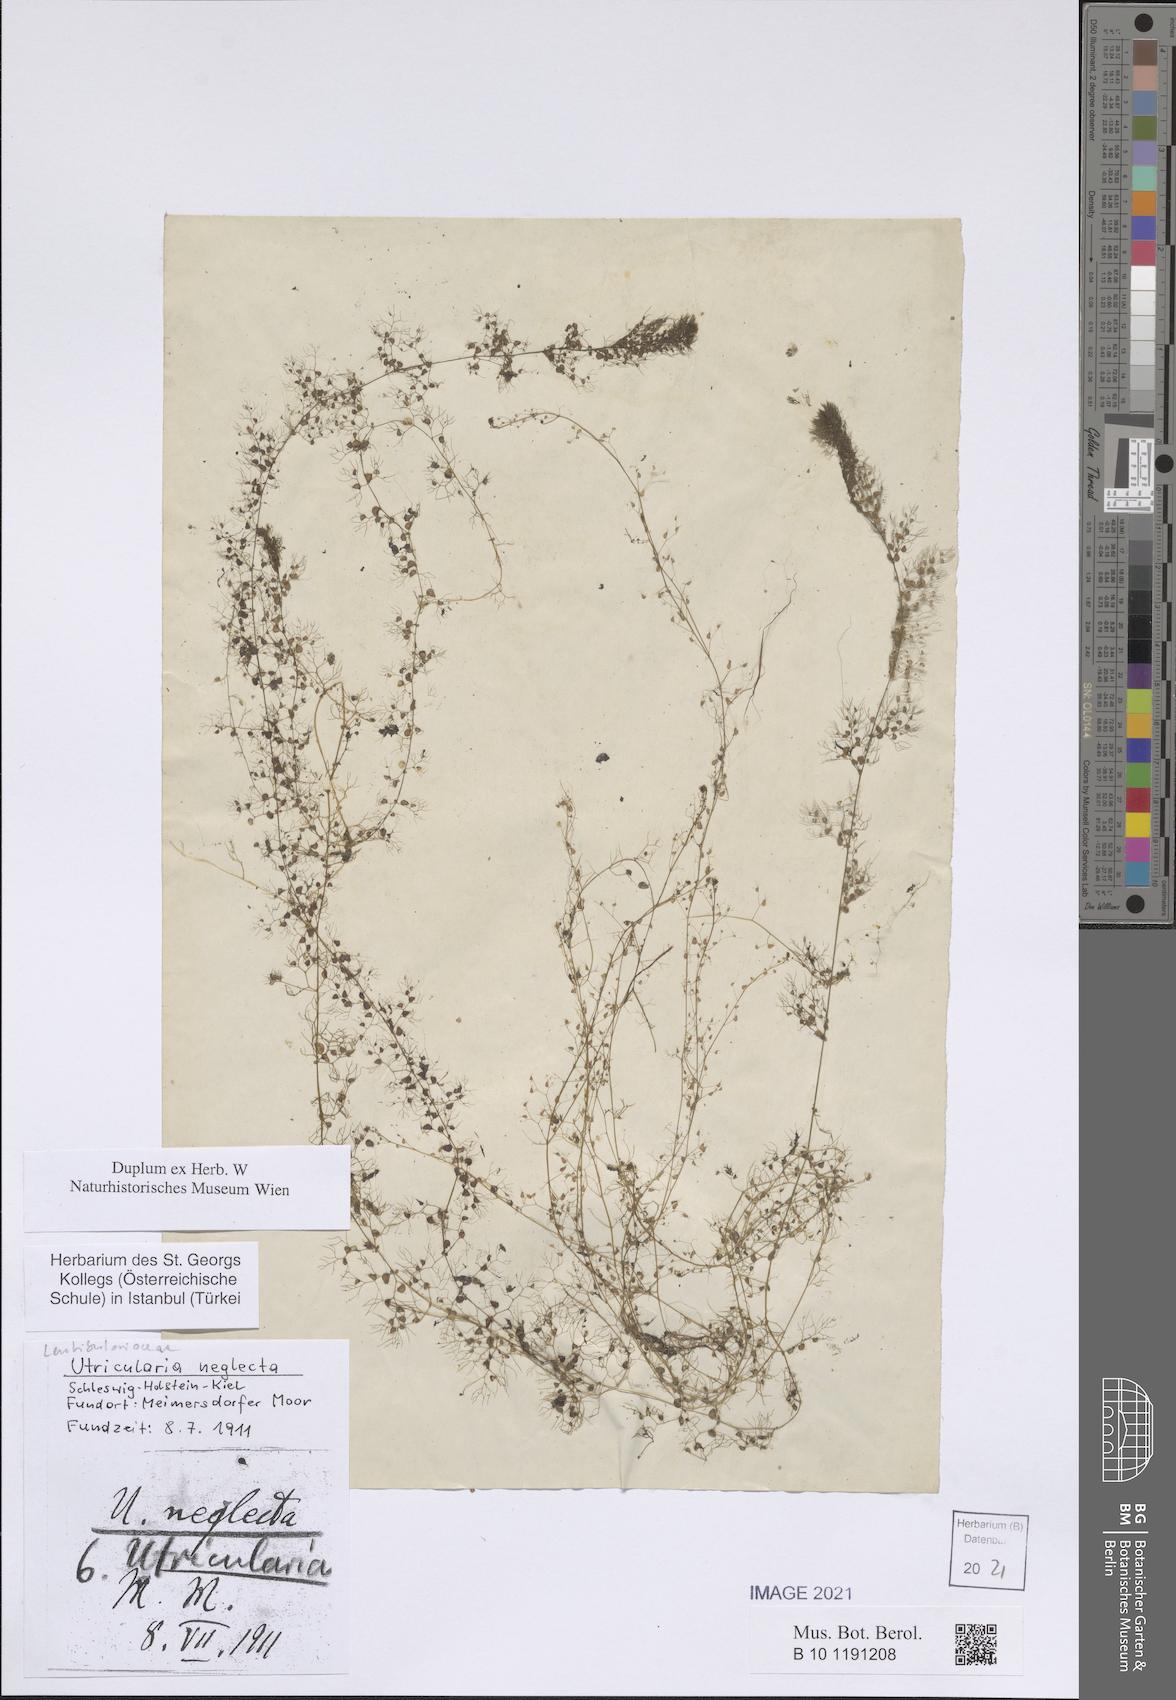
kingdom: Plantae
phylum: Tracheophyta
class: Magnoliopsida
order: Lamiales
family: Lentibulariaceae
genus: Utricularia
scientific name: Utricularia neglecta
